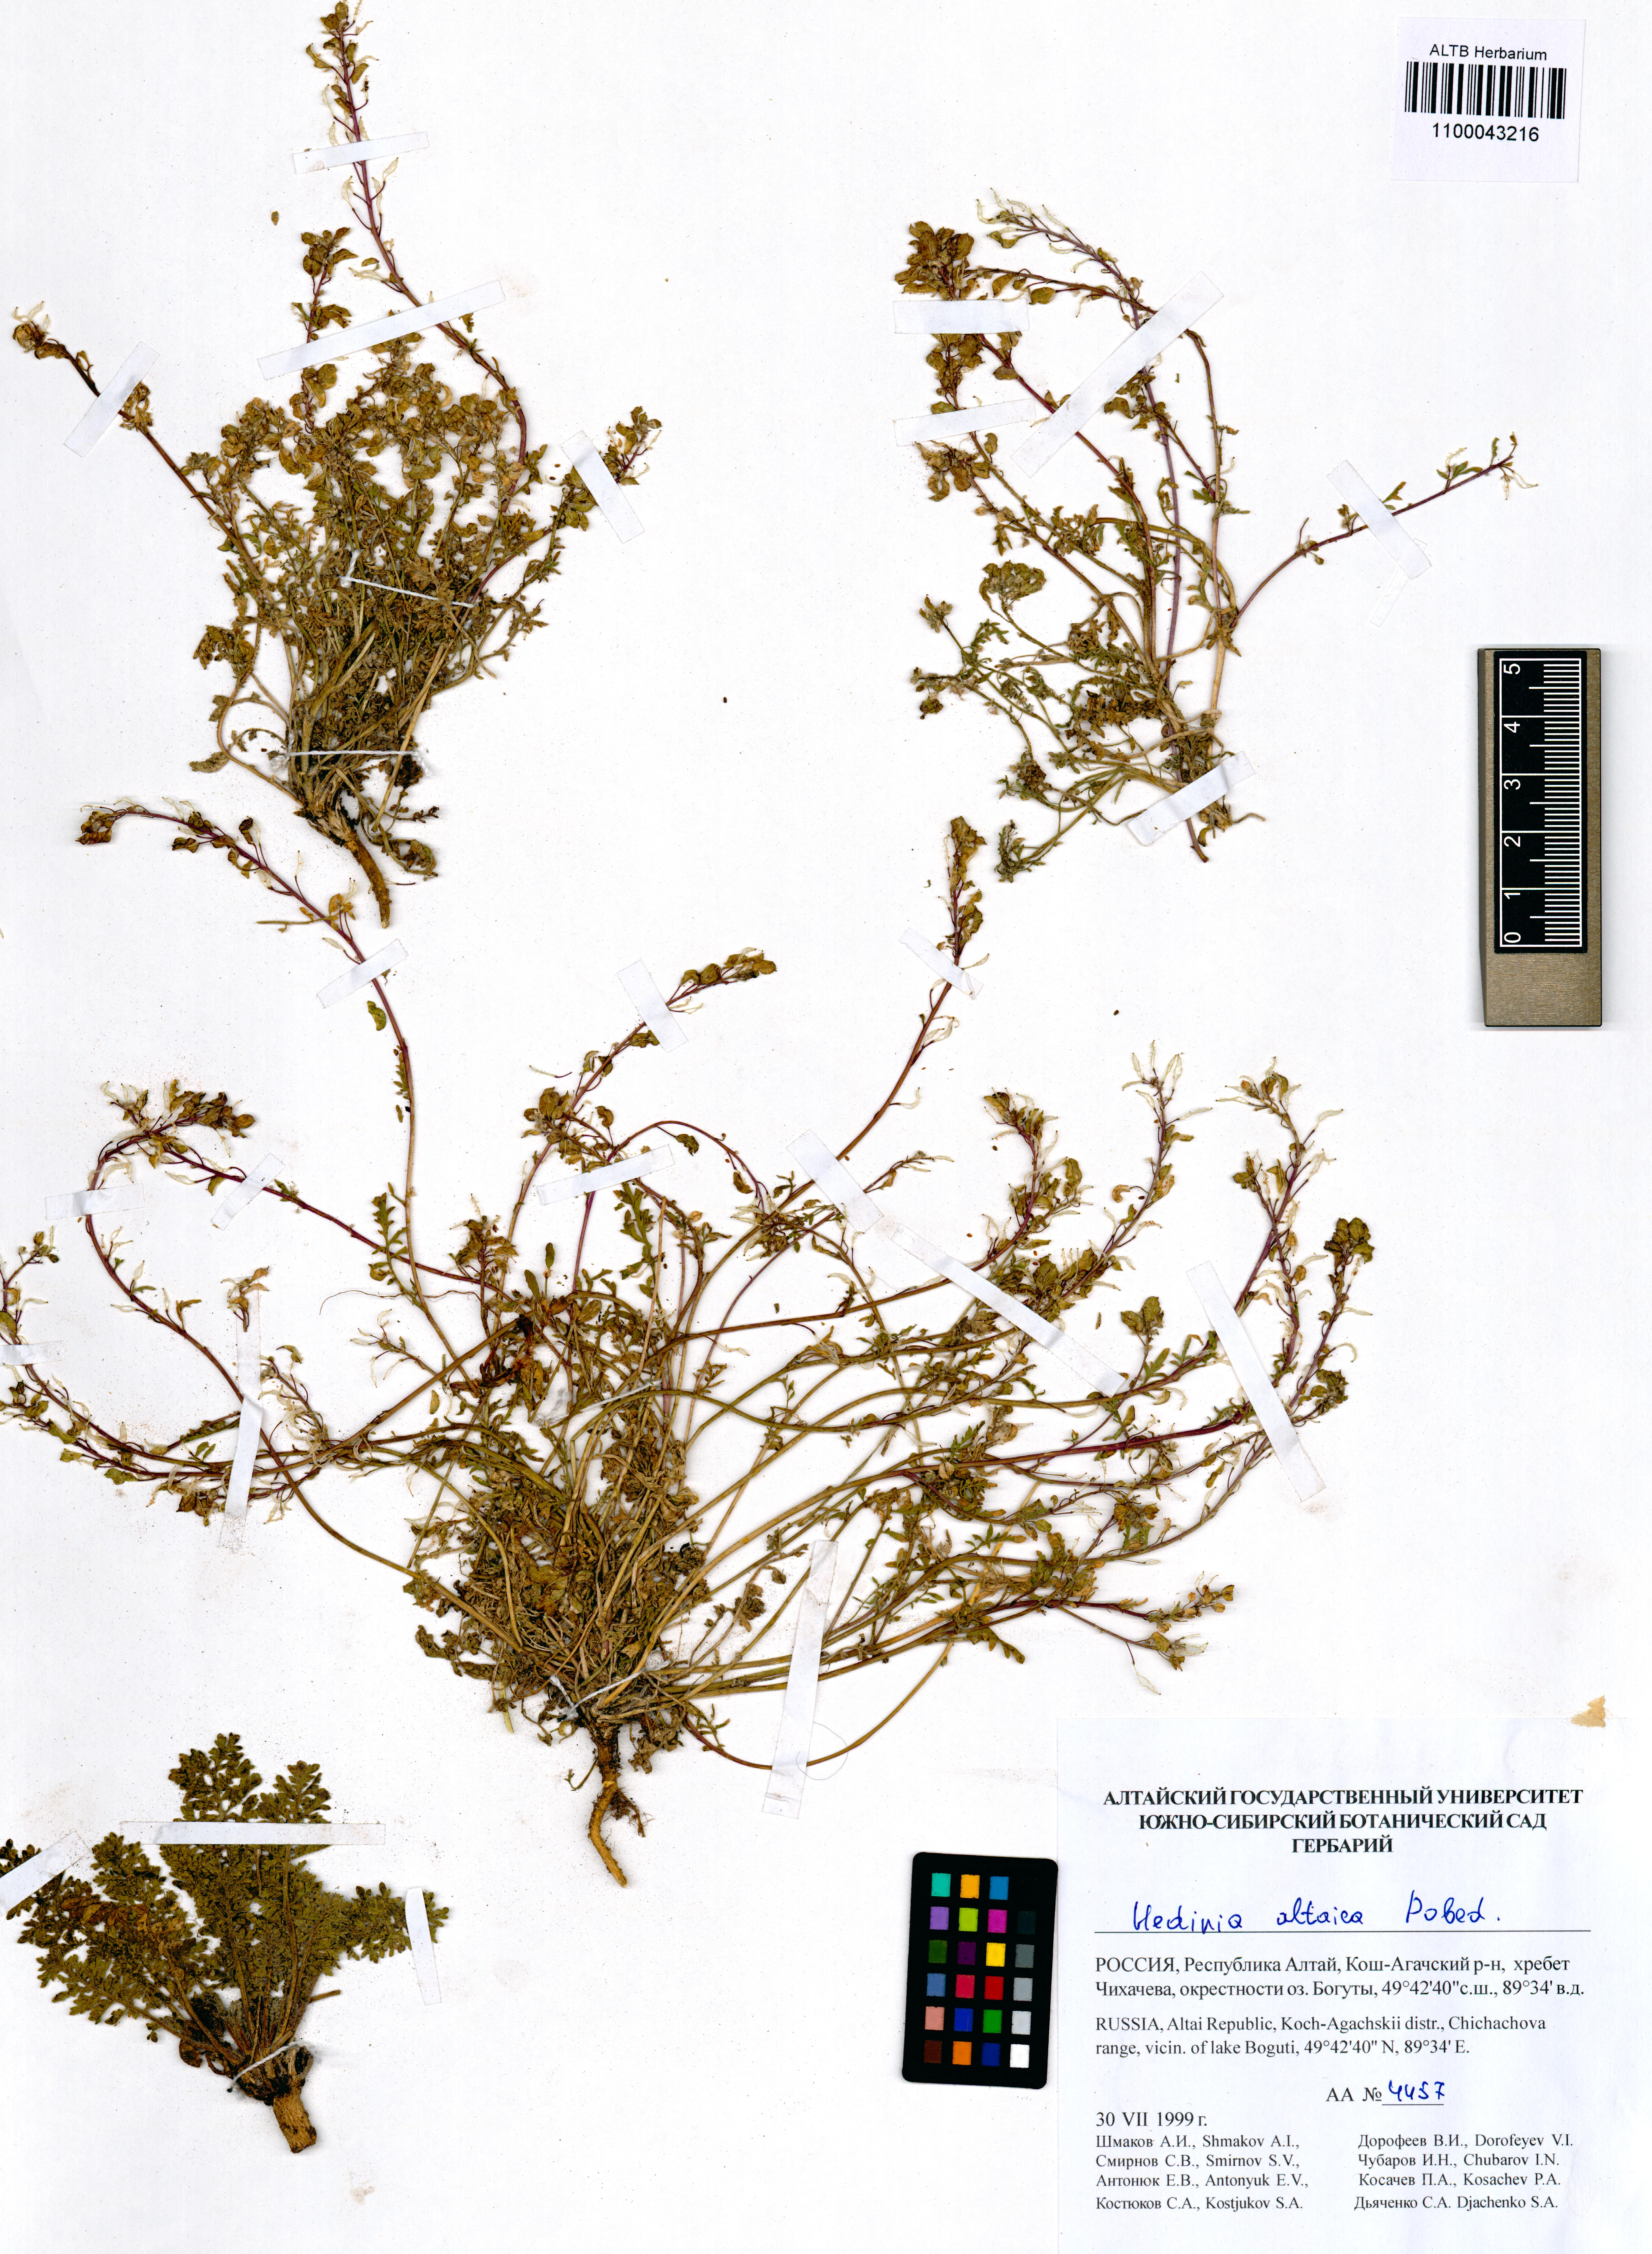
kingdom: Plantae
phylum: Tracheophyta
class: Magnoliopsida
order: Brassicales
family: Brassicaceae
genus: Smelowskia
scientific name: Smelowskia altaica
